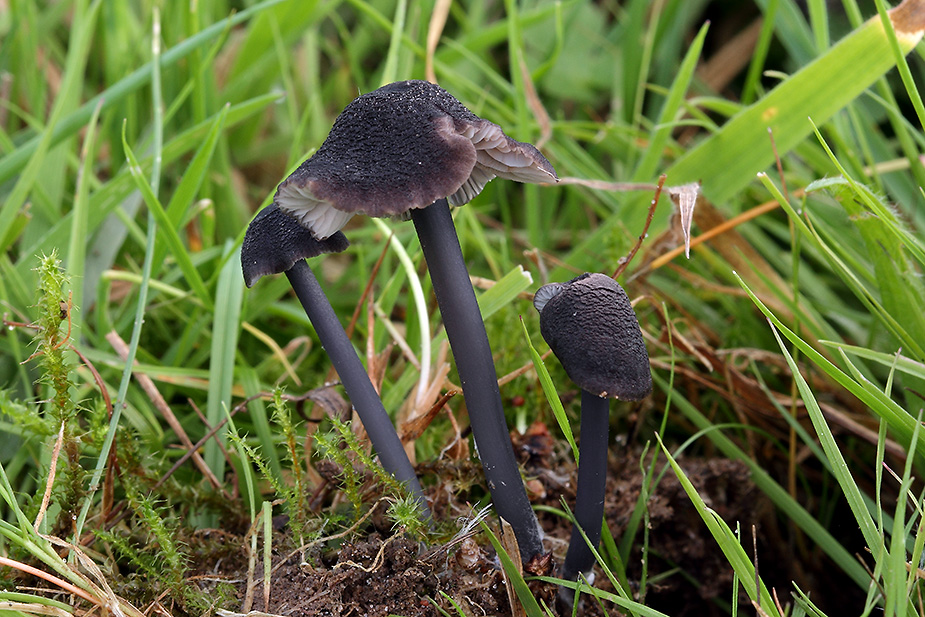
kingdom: Fungi
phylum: Basidiomycota
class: Agaricomycetes
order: Agaricales
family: Entolomataceae
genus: Entoloma
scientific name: Entoloma
